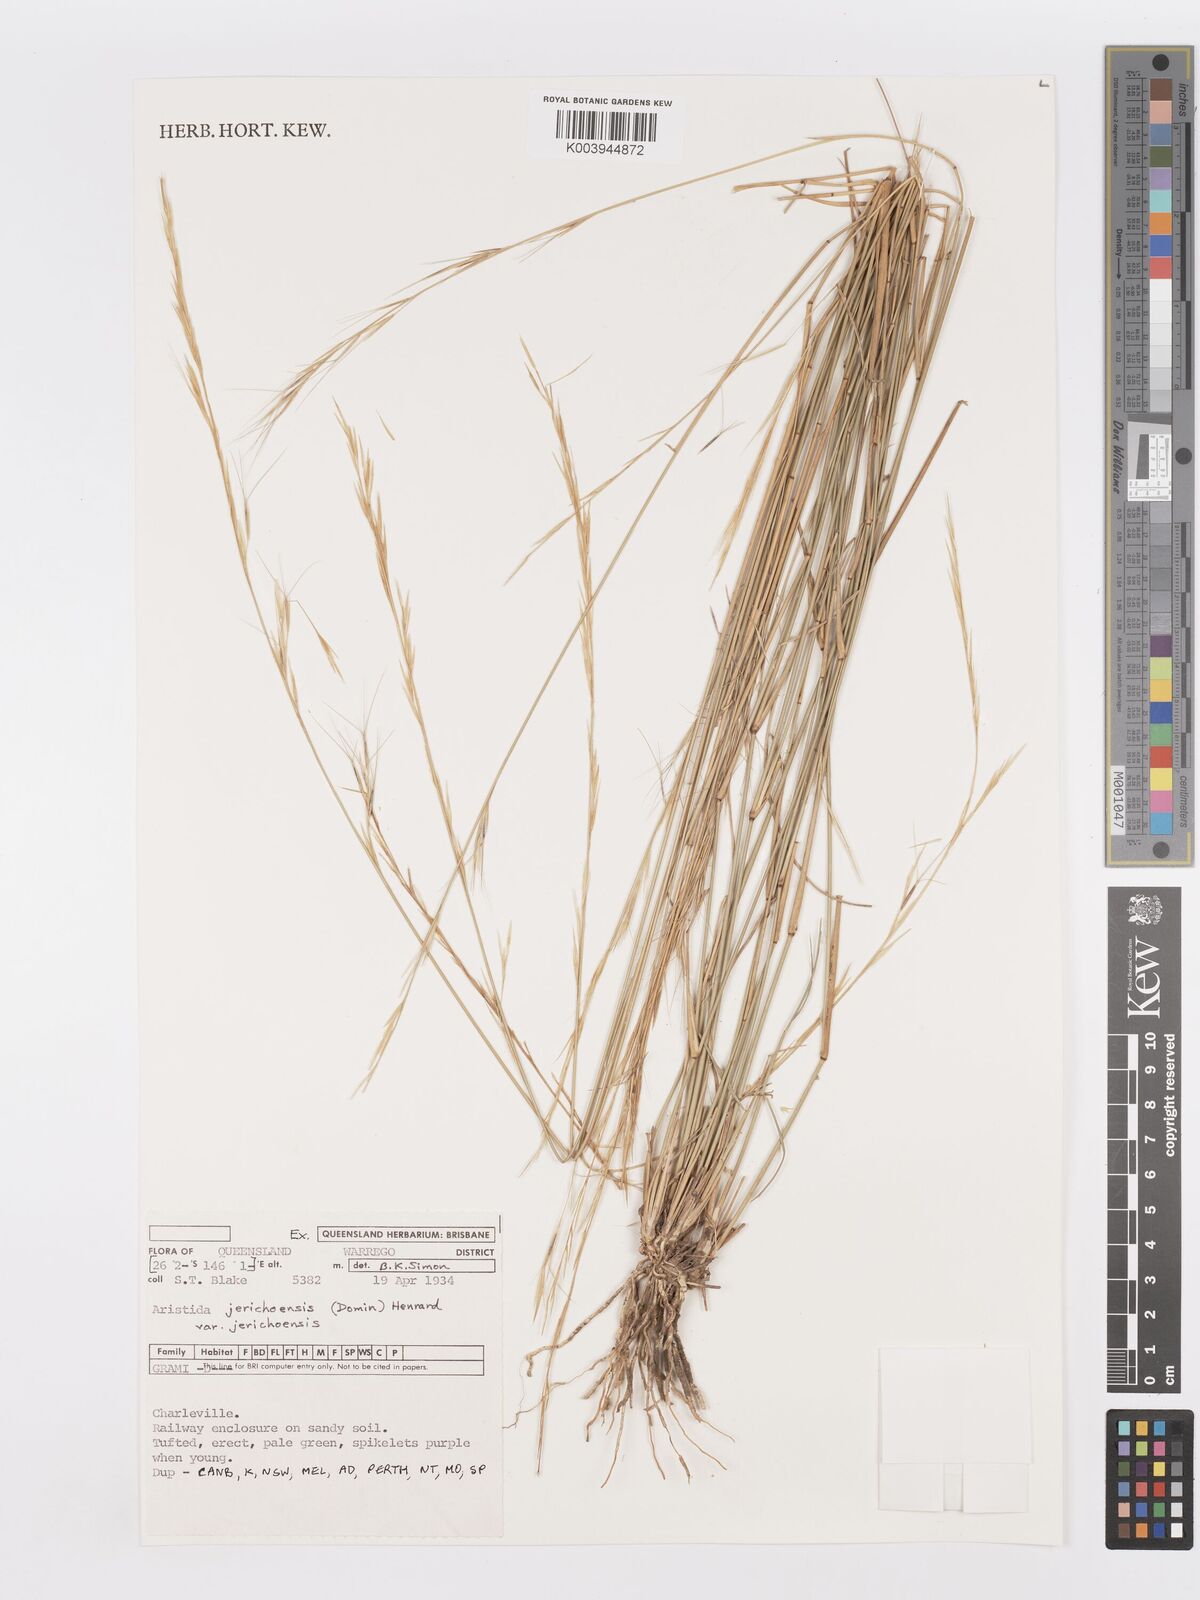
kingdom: Plantae
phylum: Tracheophyta
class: Liliopsida
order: Poales
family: Poaceae
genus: Aristida
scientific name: Aristida jerichoensis
